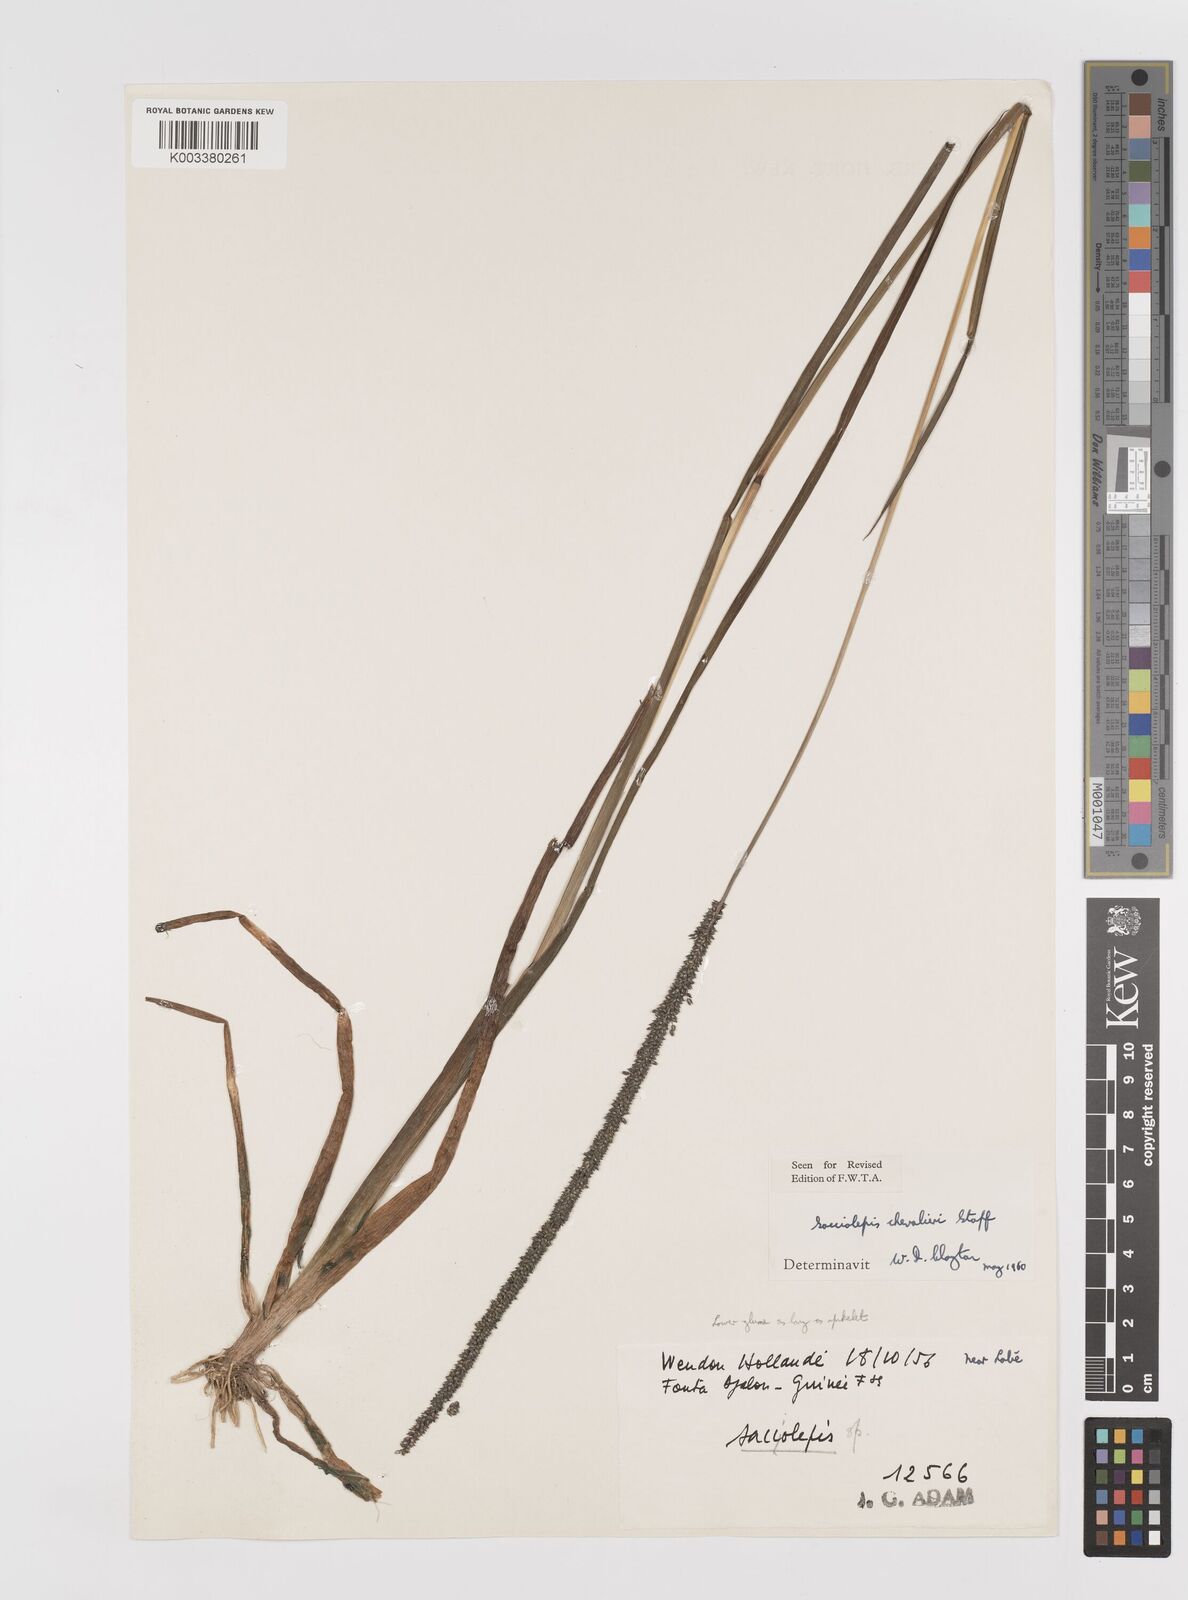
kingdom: Plantae
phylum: Tracheophyta
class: Liliopsida
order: Poales
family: Poaceae
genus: Sacciolepis
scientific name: Sacciolepis typhura
